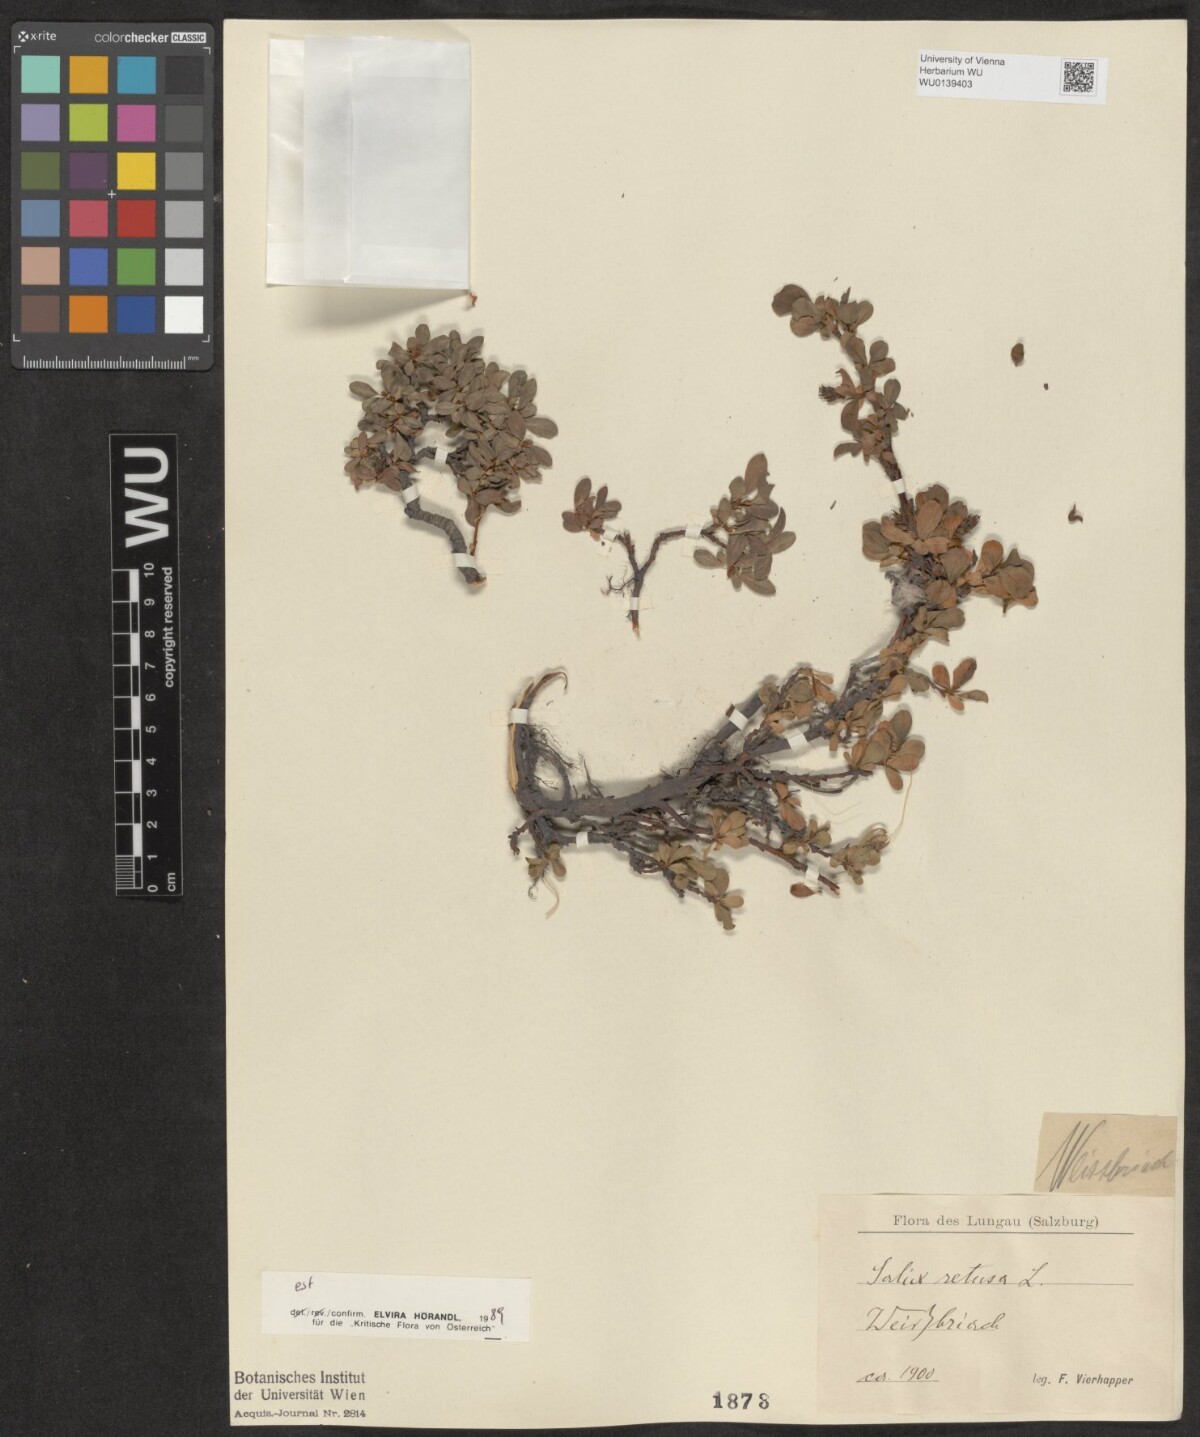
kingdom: Plantae
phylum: Tracheophyta
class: Magnoliopsida
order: Malpighiales
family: Salicaceae
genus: Salix
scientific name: Salix retusa
